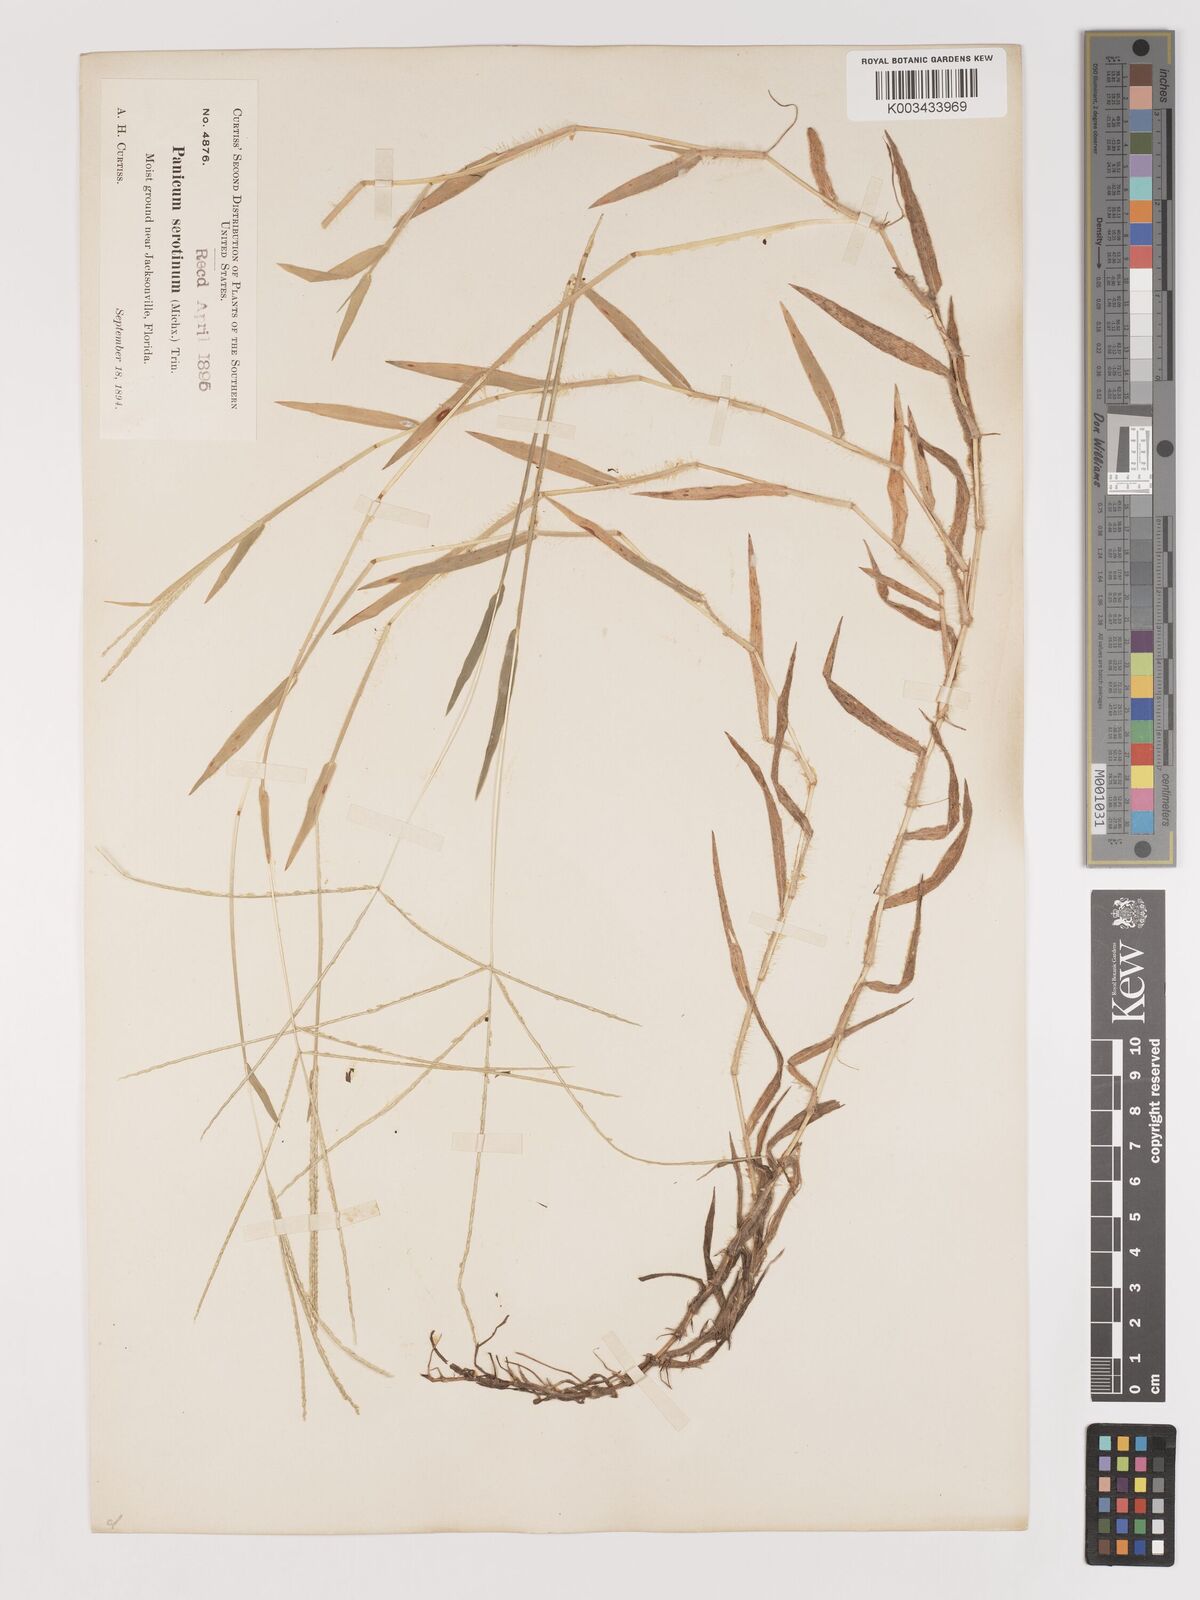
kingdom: Plantae
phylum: Tracheophyta
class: Liliopsida
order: Poales
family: Poaceae
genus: Digitaria
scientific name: Digitaria serotina
